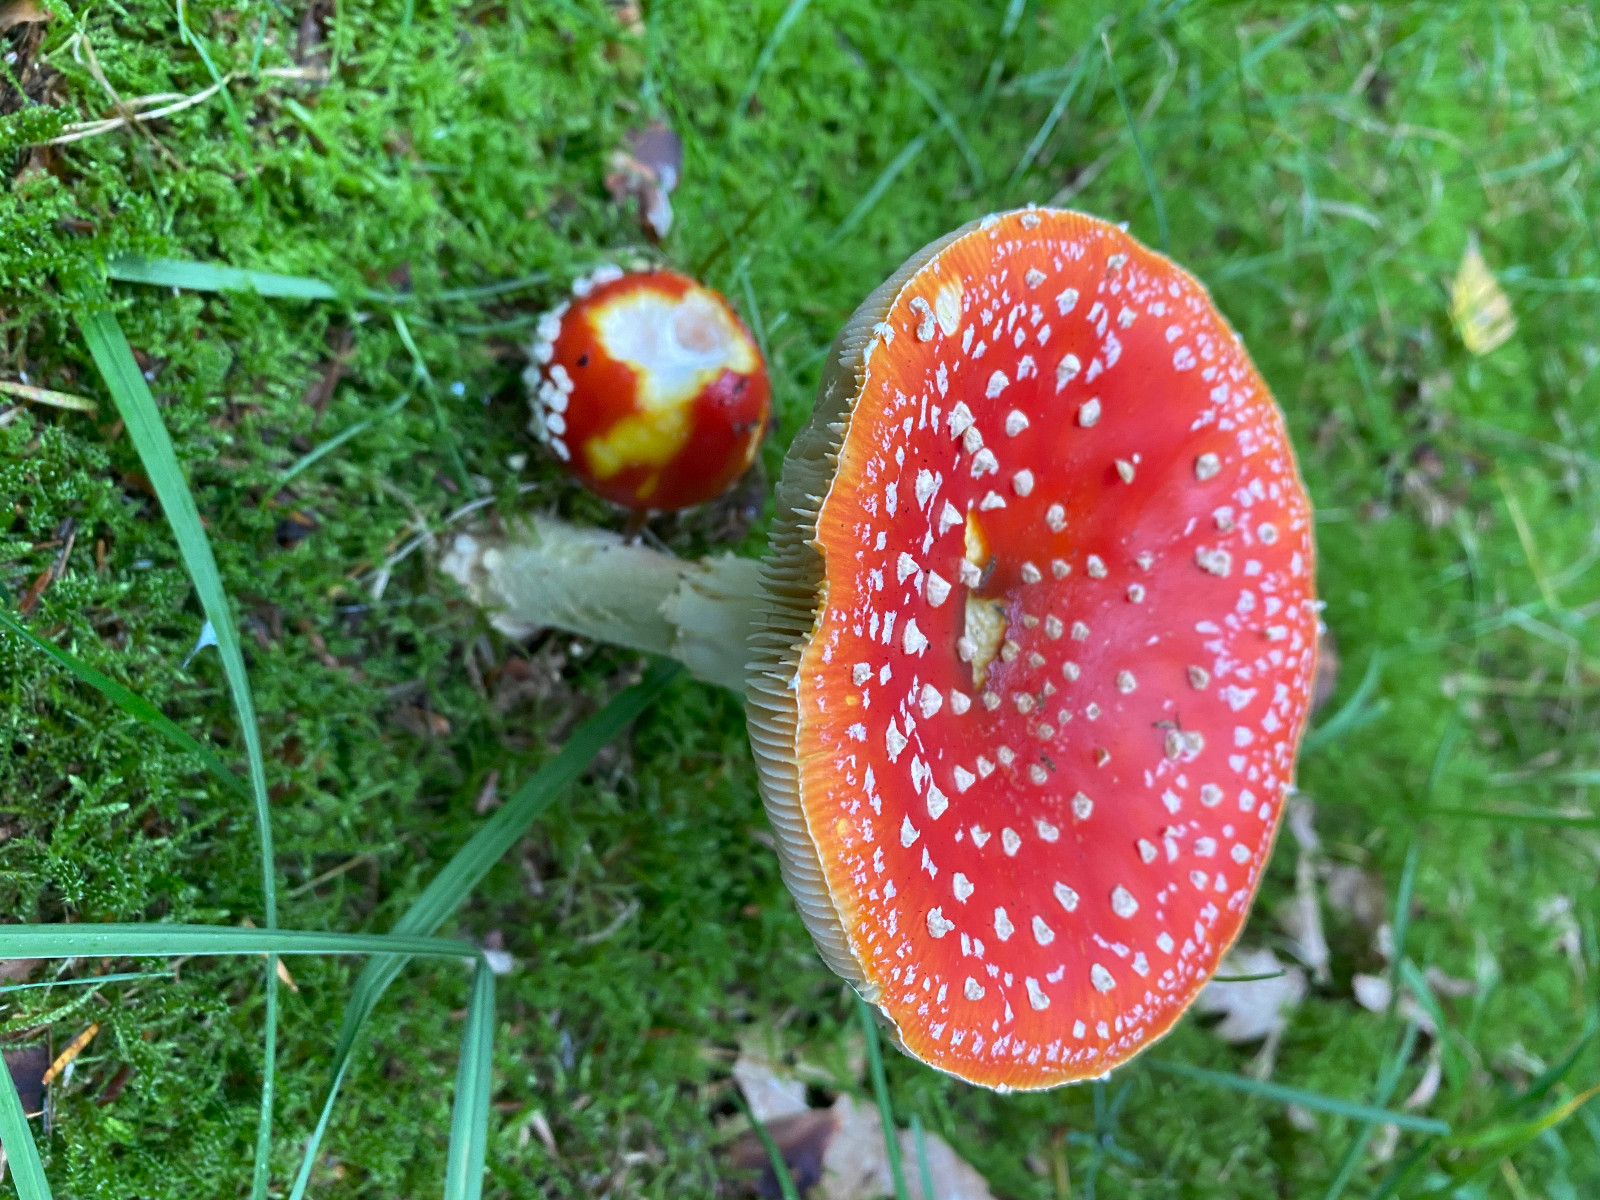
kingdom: Fungi
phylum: Basidiomycota
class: Agaricomycetes
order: Agaricales
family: Amanitaceae
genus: Amanita
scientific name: Amanita muscaria
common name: rød fluesvamp
